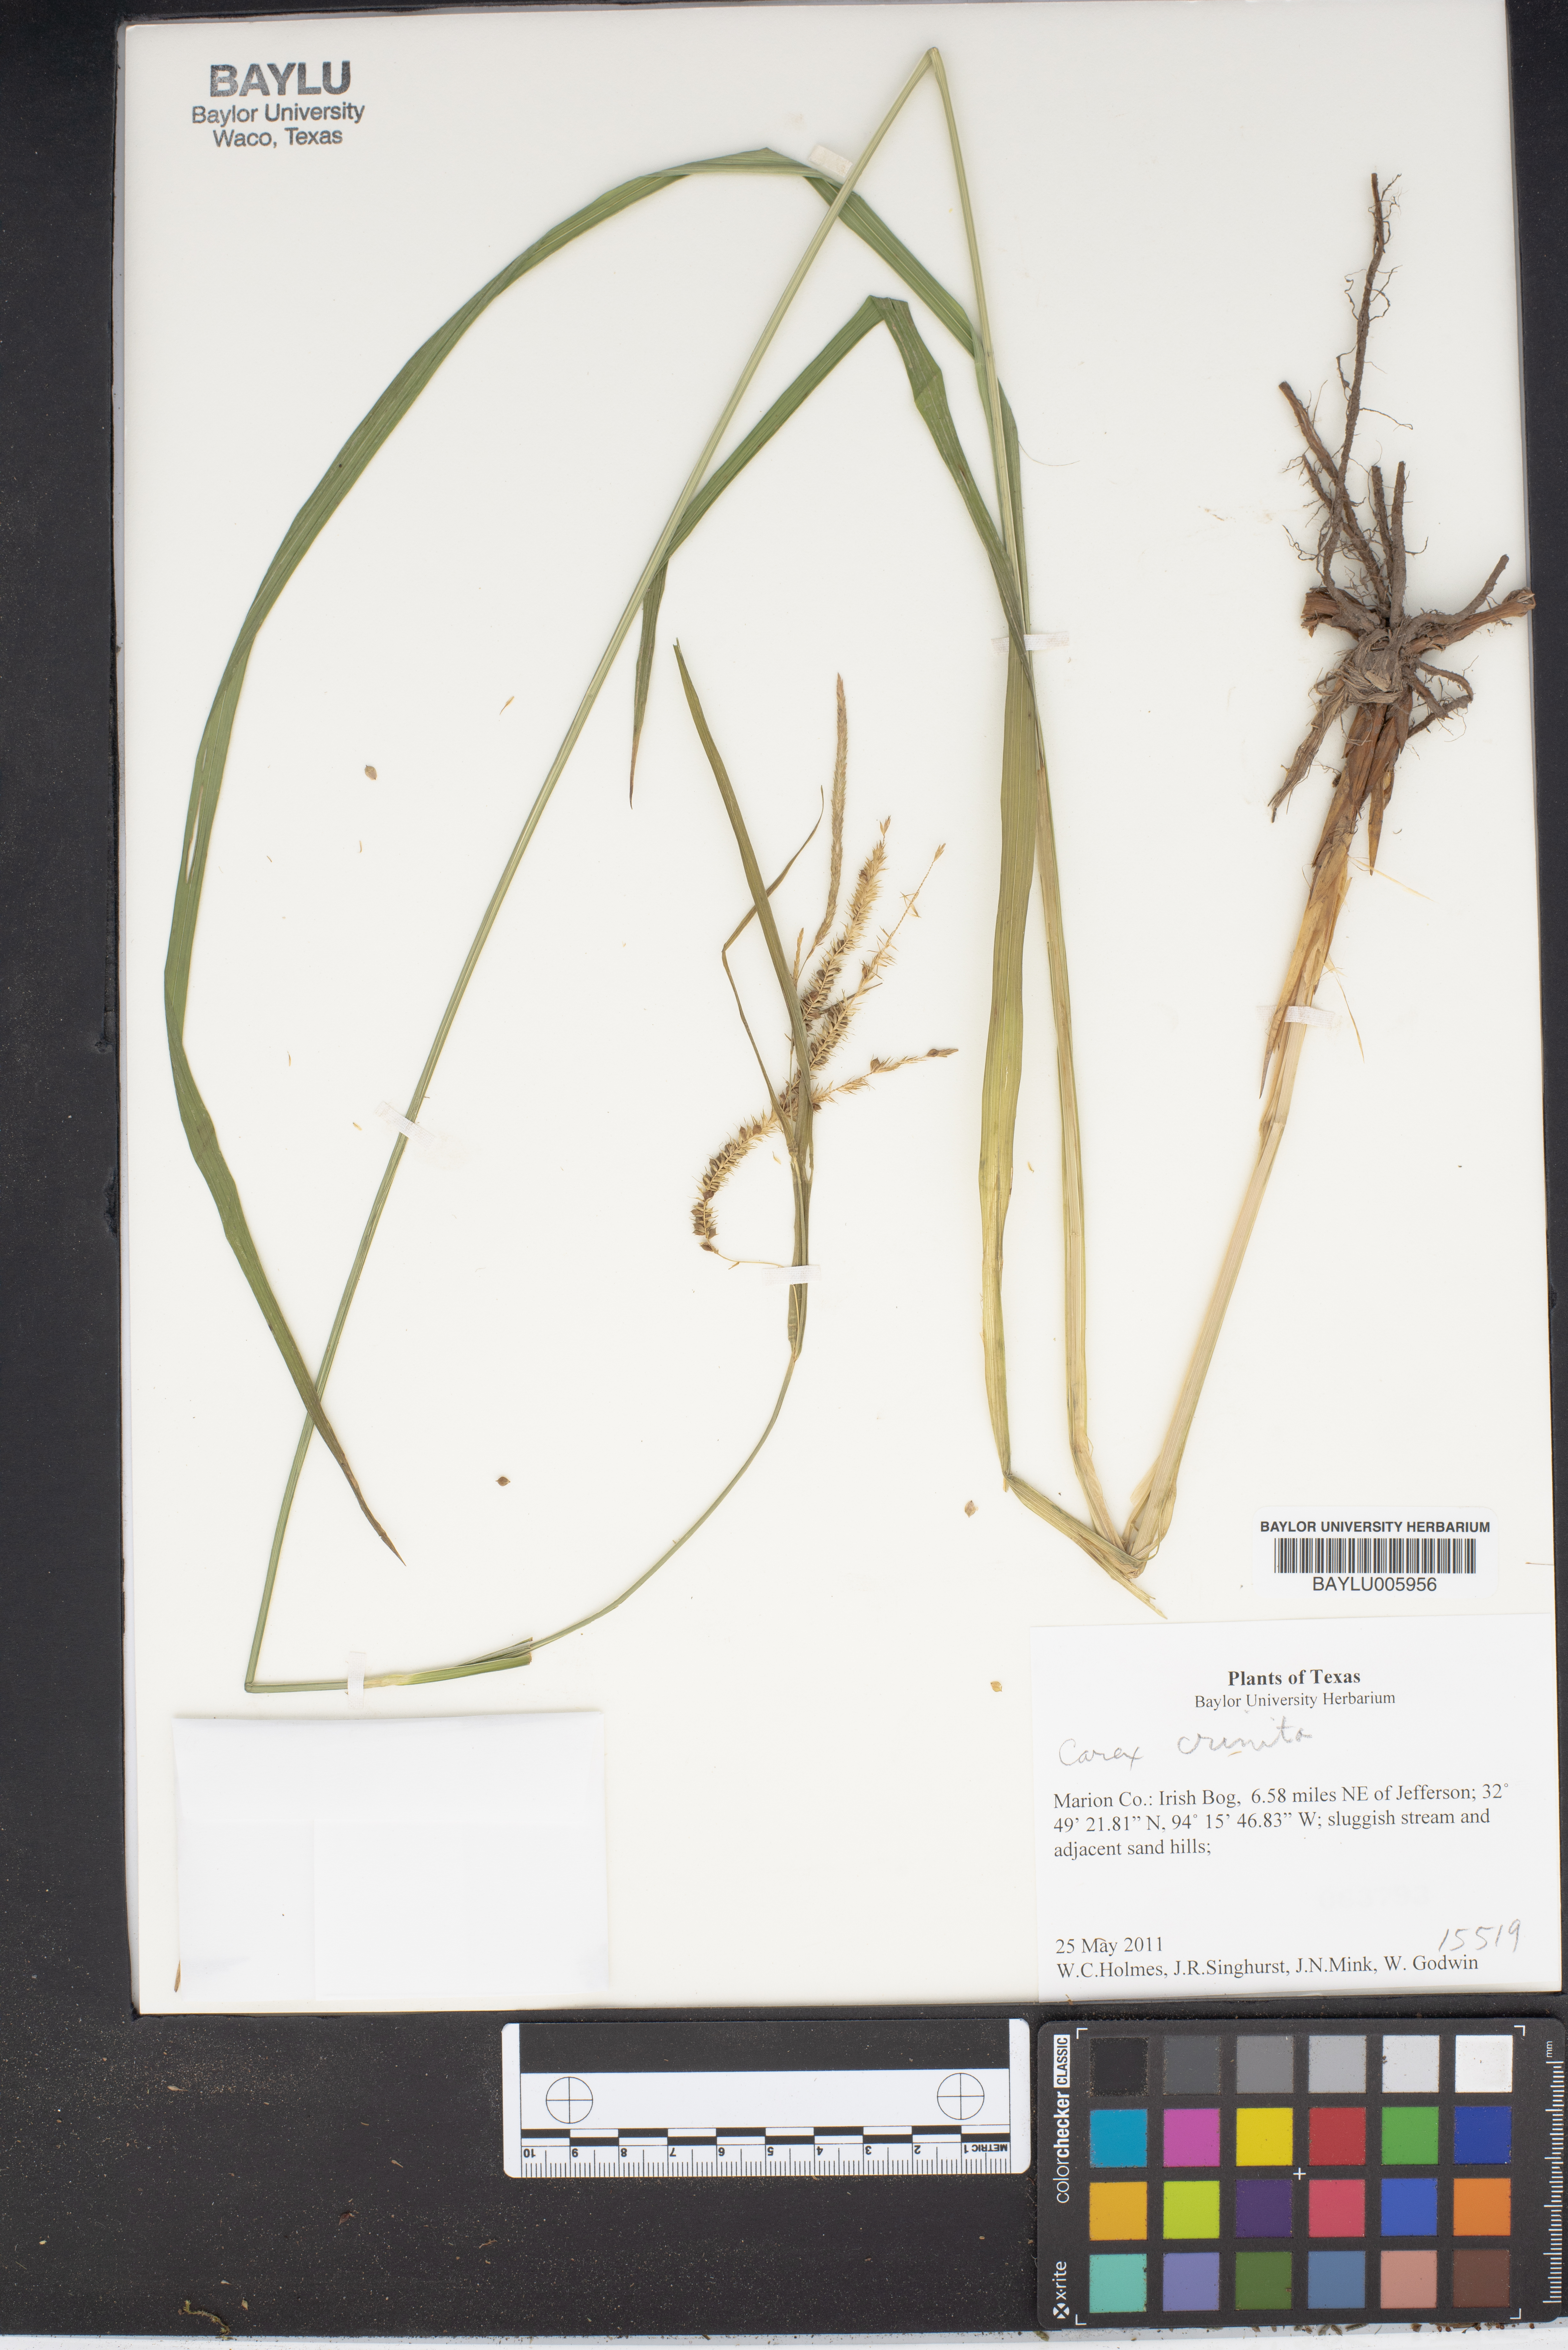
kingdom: Plantae
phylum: Tracheophyta
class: Liliopsida
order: Poales
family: Cyperaceae
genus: Carex
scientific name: Carex crinita
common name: Fringed sedge
